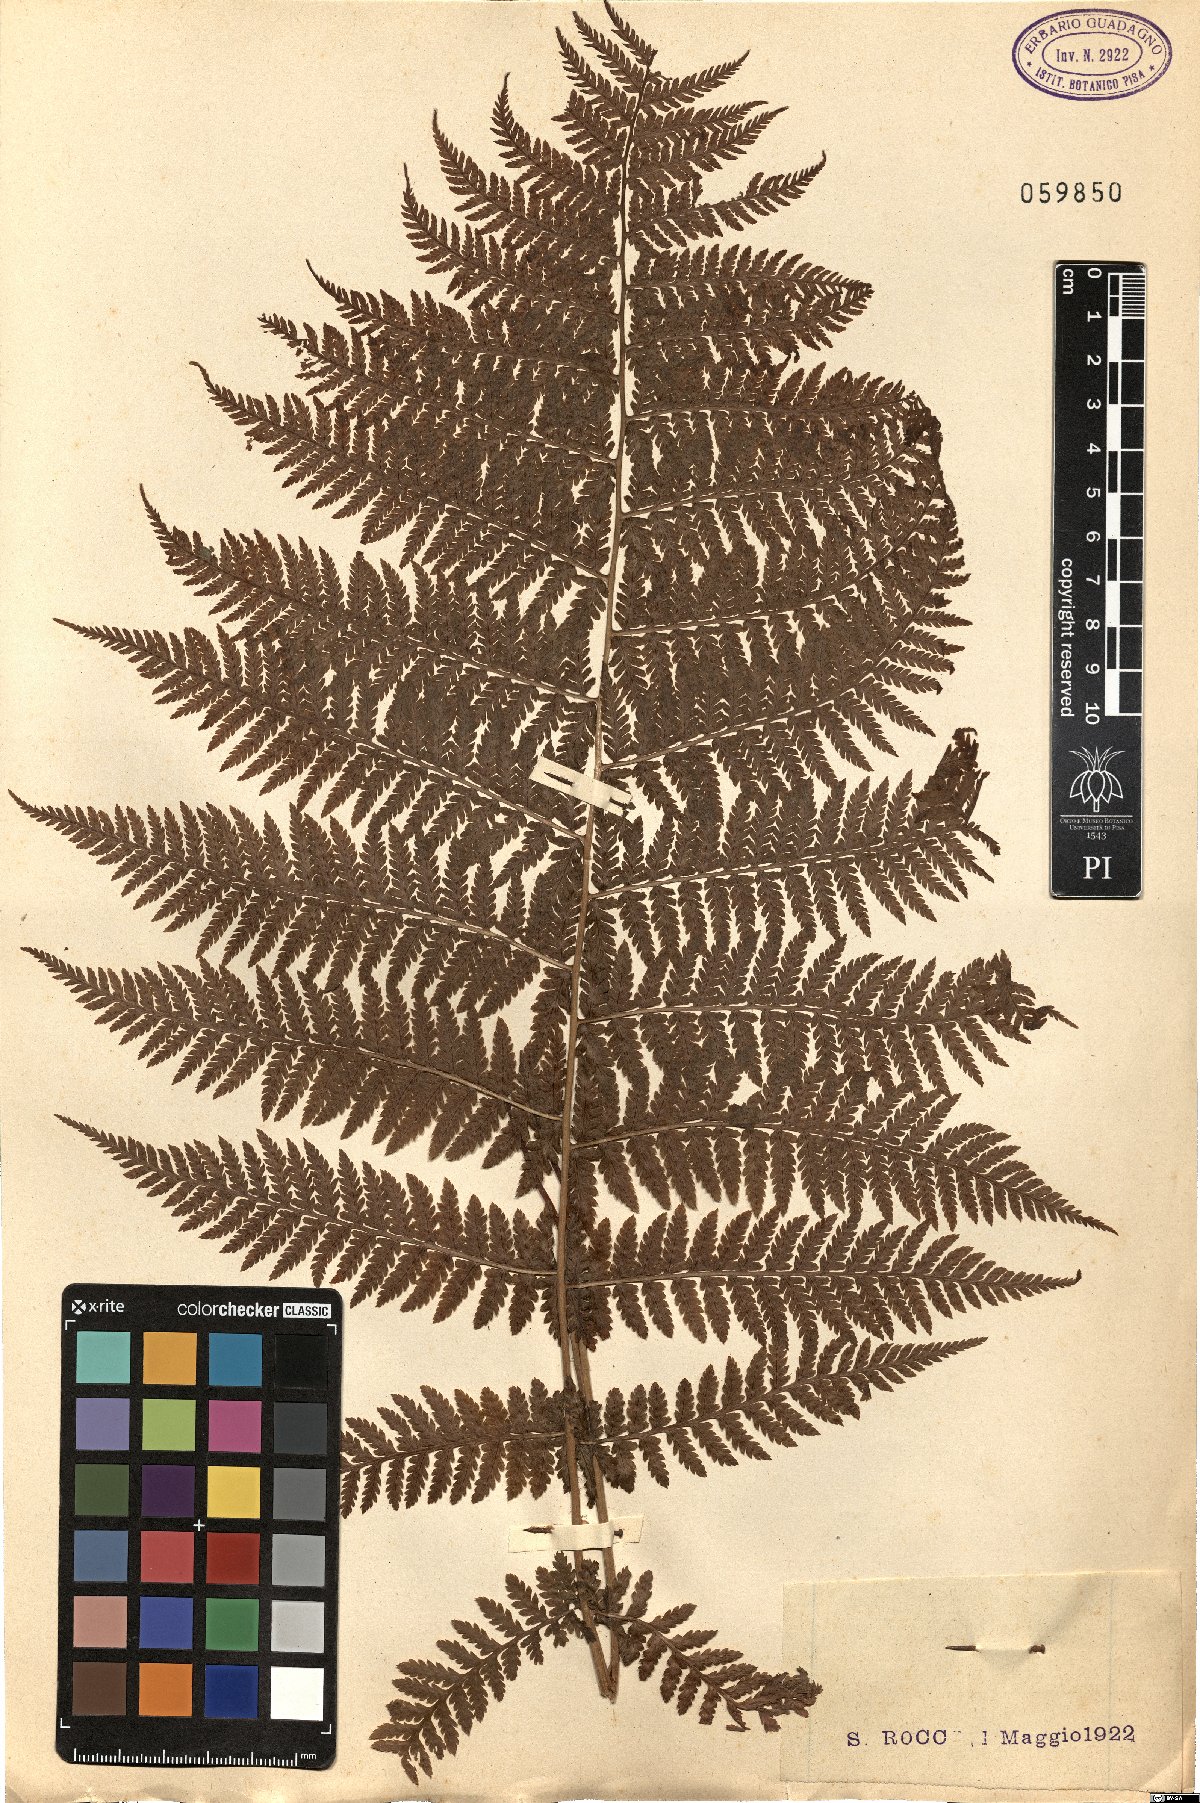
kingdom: Plantae
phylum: Tracheophyta
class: Polypodiopsida
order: Polypodiales
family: Athyriaceae
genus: Athyrium
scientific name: Athyrium filix-femina
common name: Lady fern
